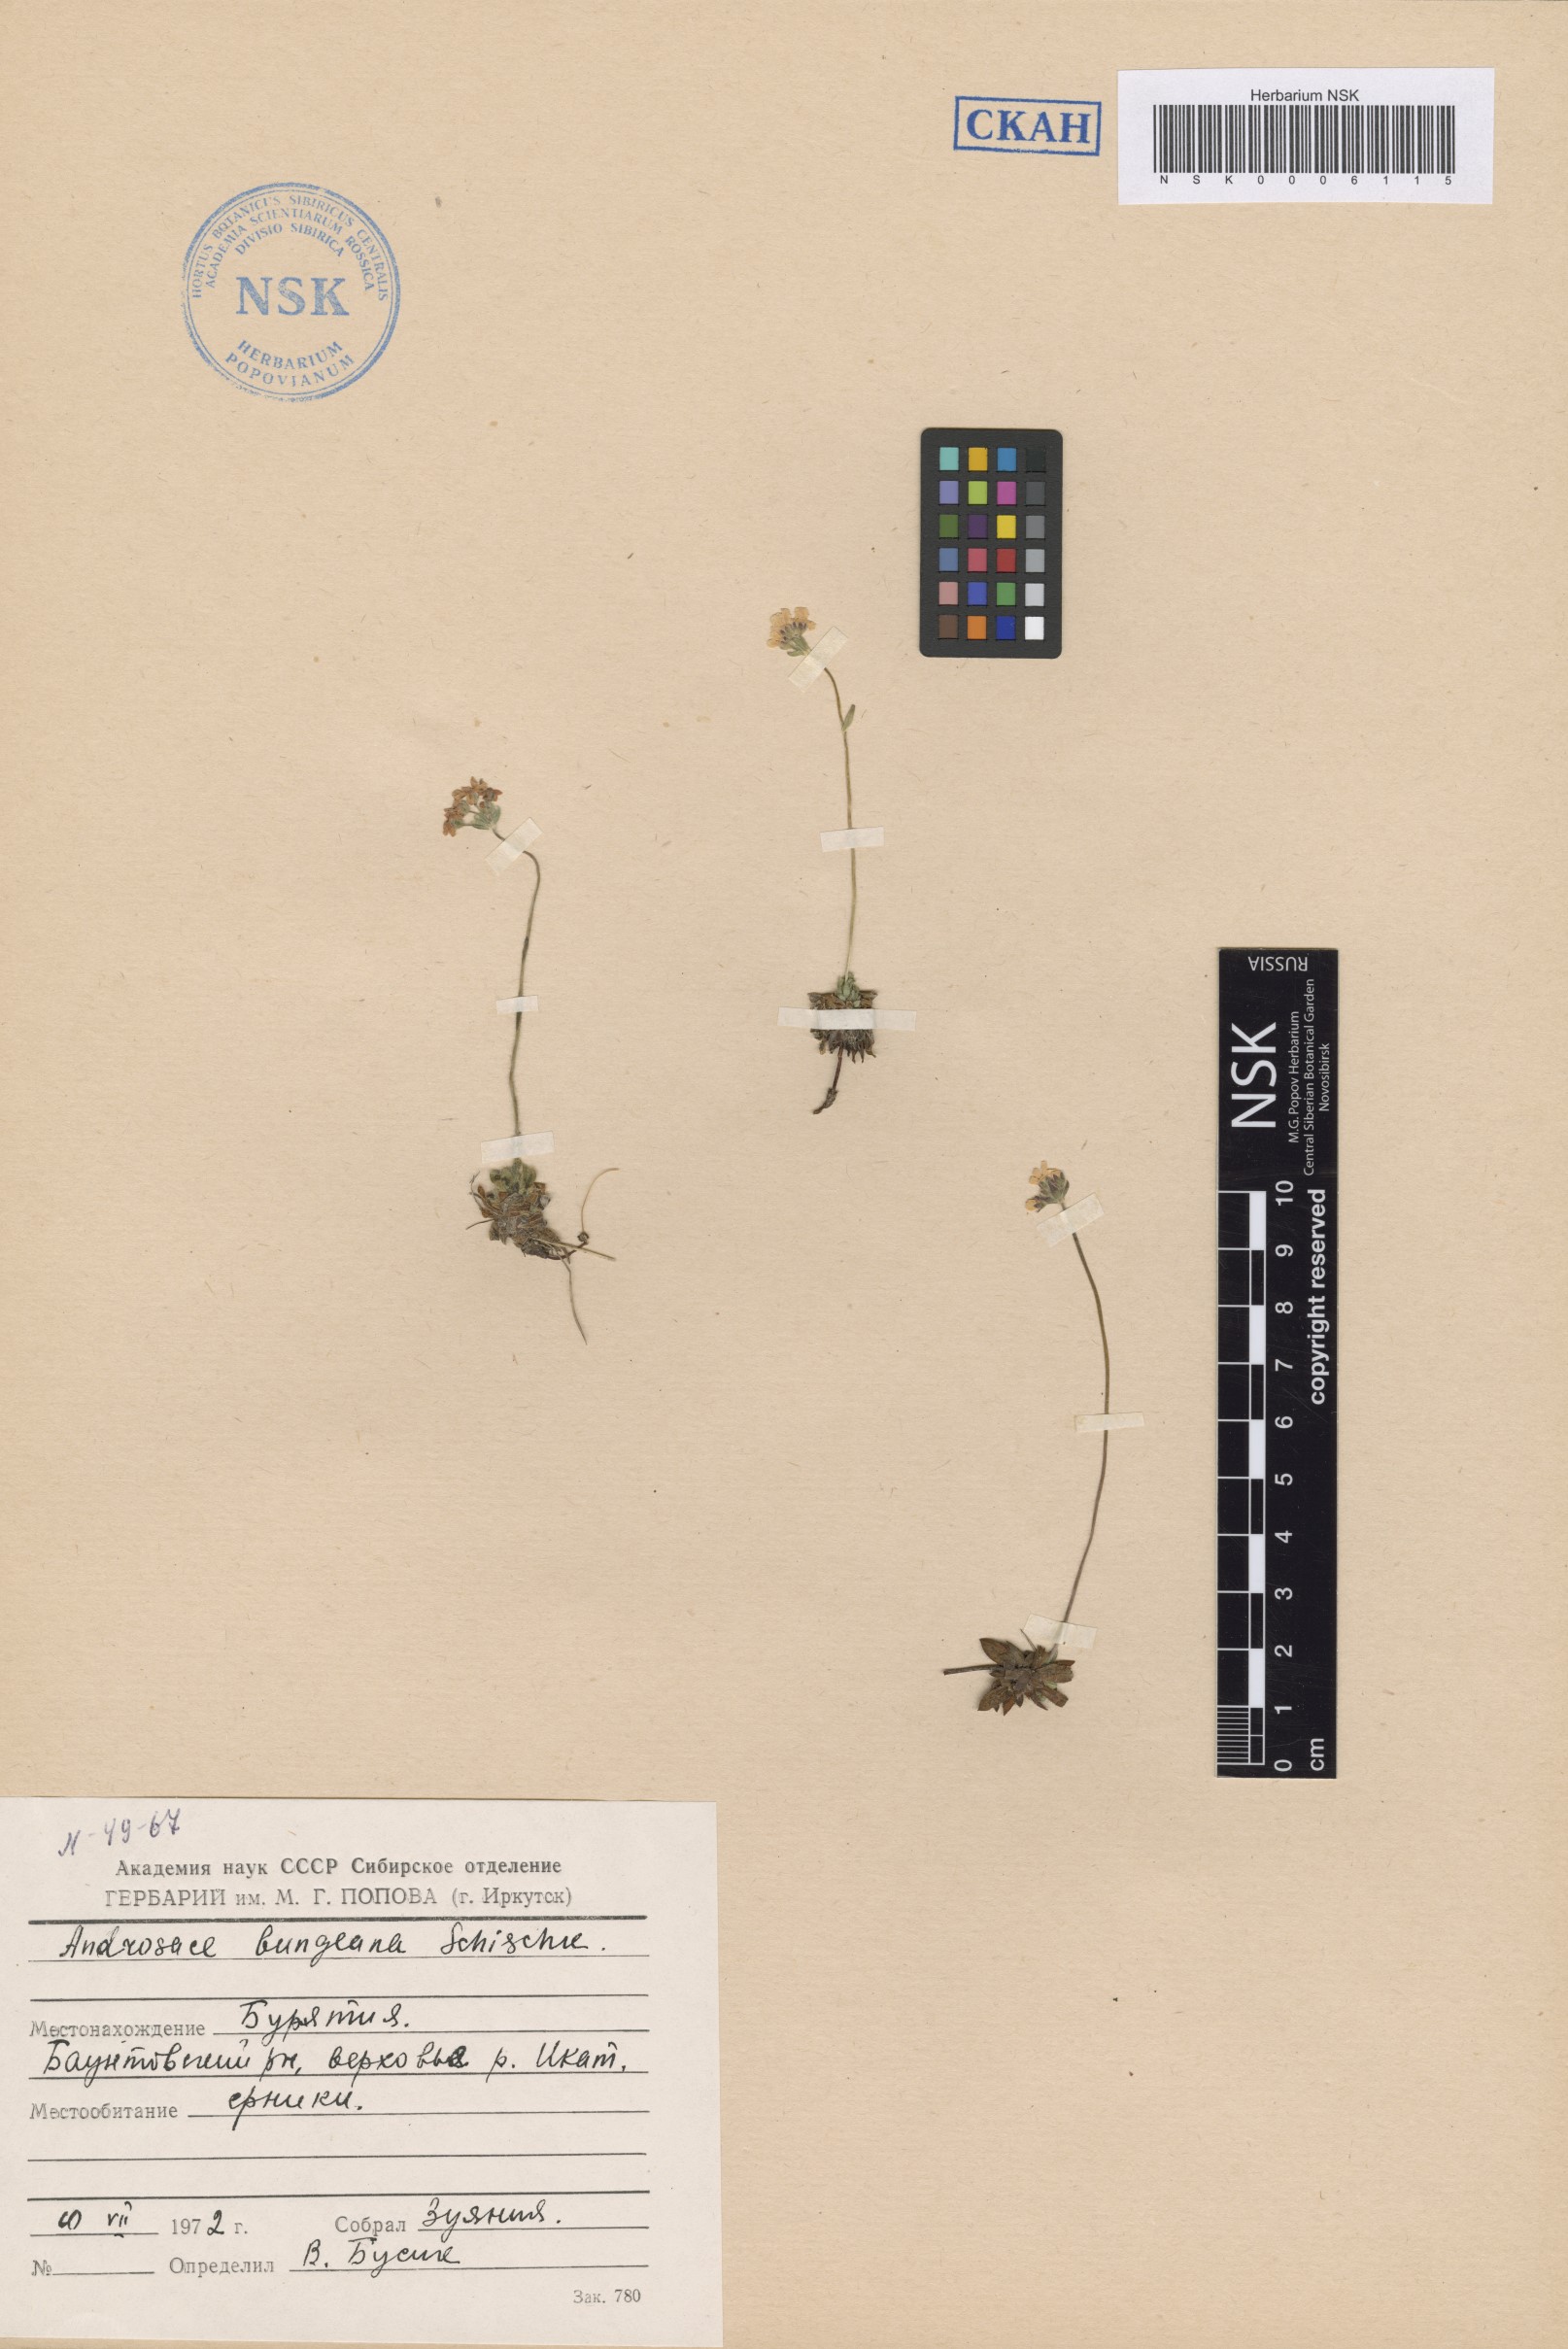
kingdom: Plantae
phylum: Tracheophyta
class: Magnoliopsida
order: Ericales
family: Primulaceae
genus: Androsace
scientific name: Androsace bungeana
